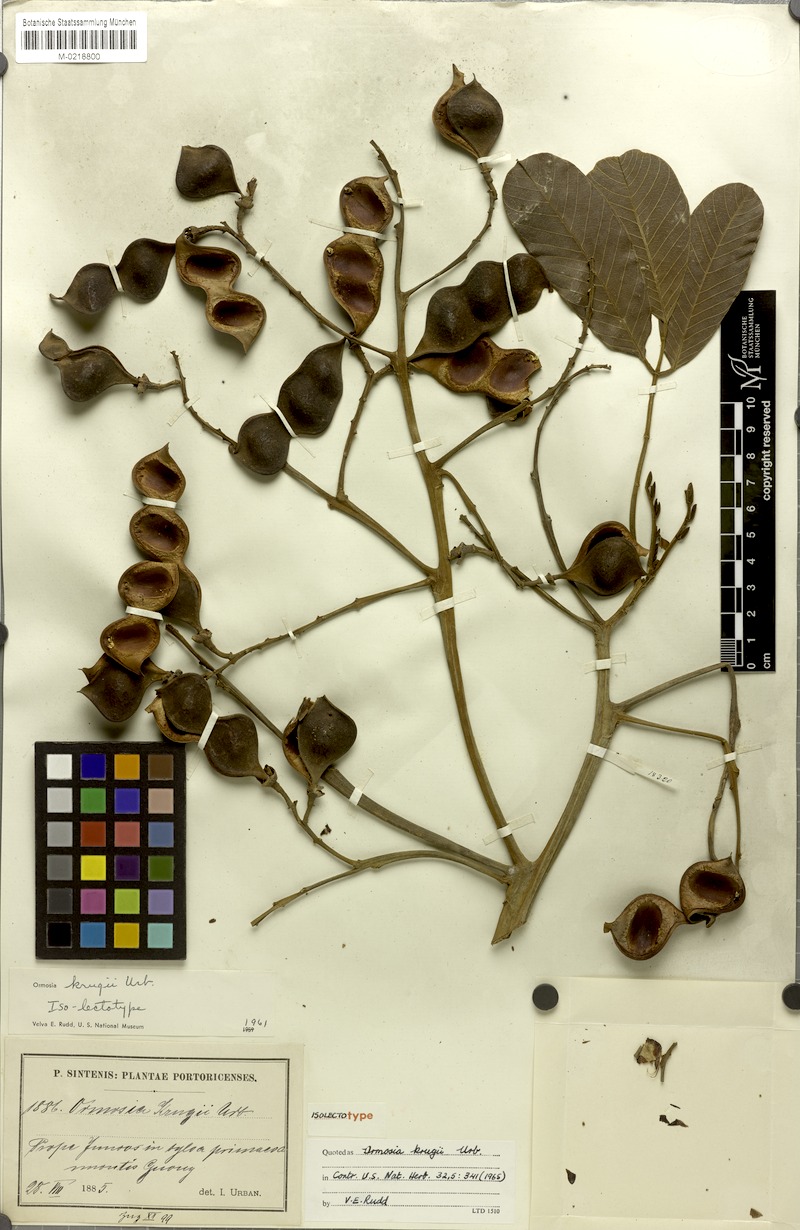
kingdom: Plantae
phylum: Tracheophyta
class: Magnoliopsida
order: Fabales
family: Fabaceae
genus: Ormosia
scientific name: Ormosia krugii
